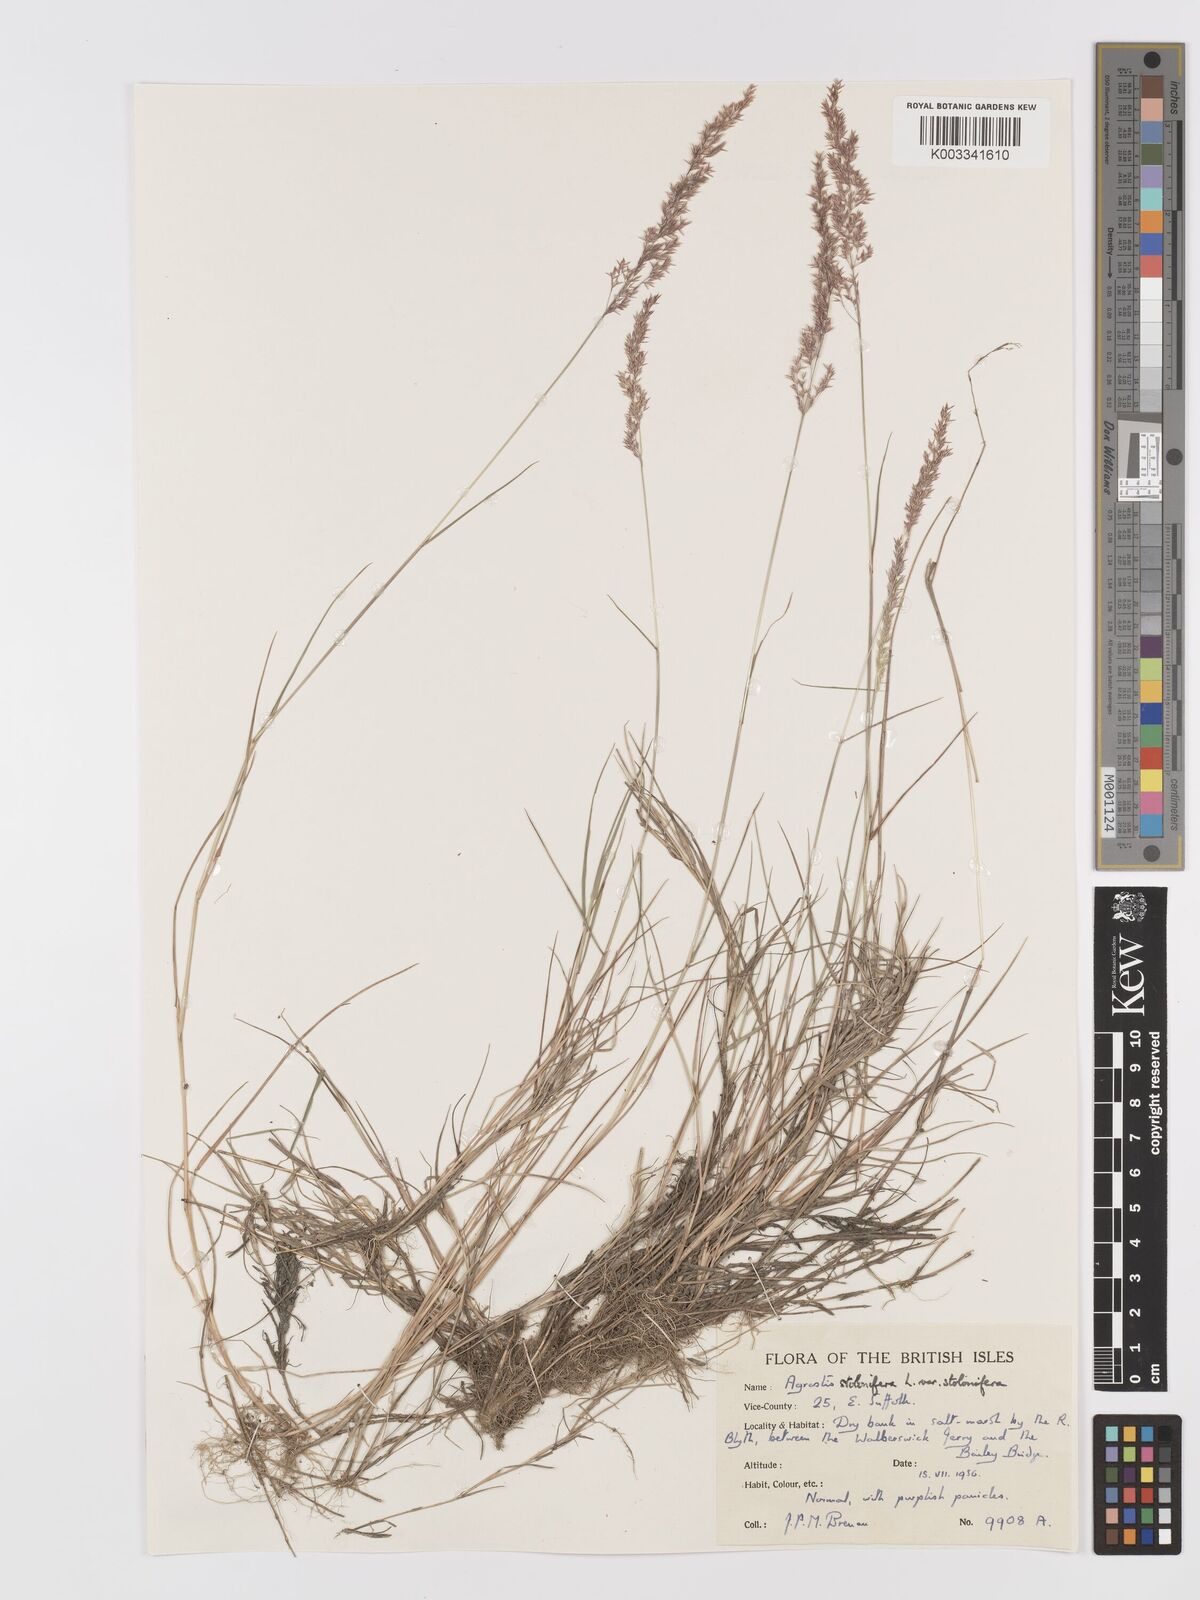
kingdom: Plantae
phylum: Tracheophyta
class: Liliopsida
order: Poales
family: Poaceae
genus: Agrostis
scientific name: Agrostis stolonifera
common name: Creeping bentgrass
